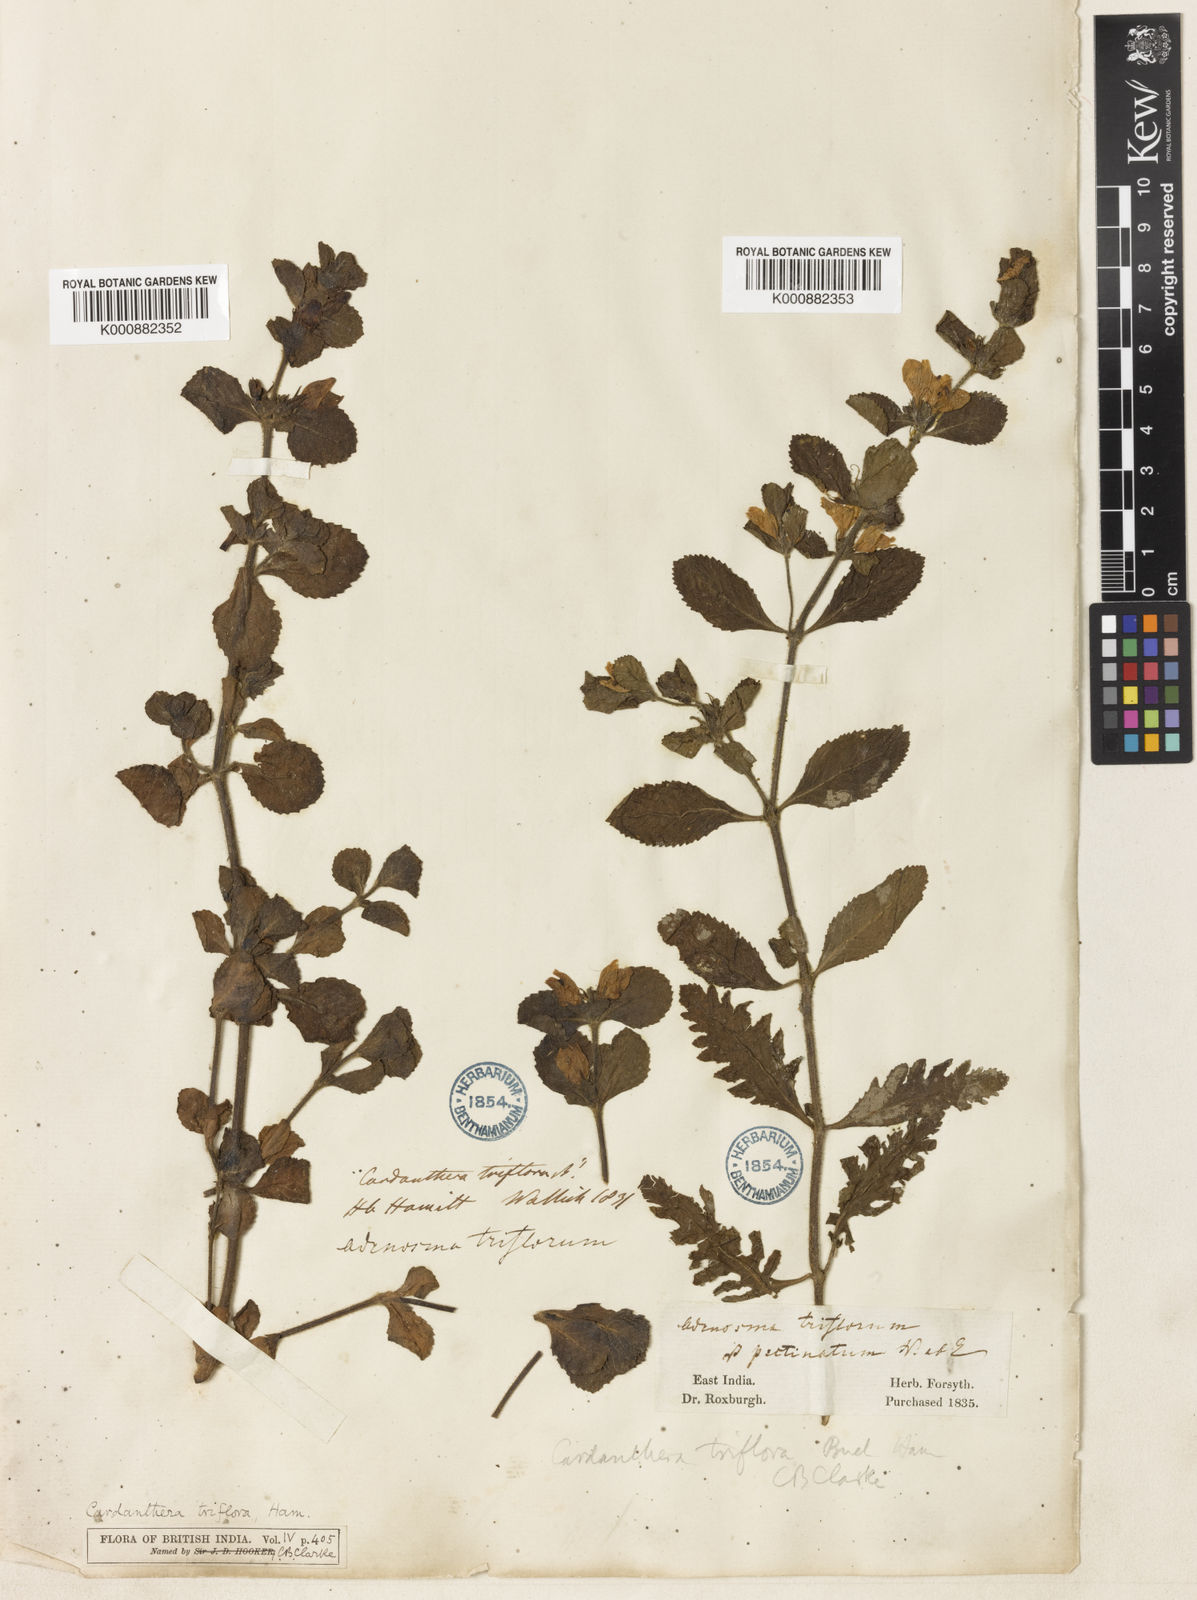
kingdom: Plantae
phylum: Tracheophyta
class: Magnoliopsida
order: Lamiales
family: Acanthaceae
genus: Hygrophila
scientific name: Hygrophila difformis
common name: Water-wisteria
